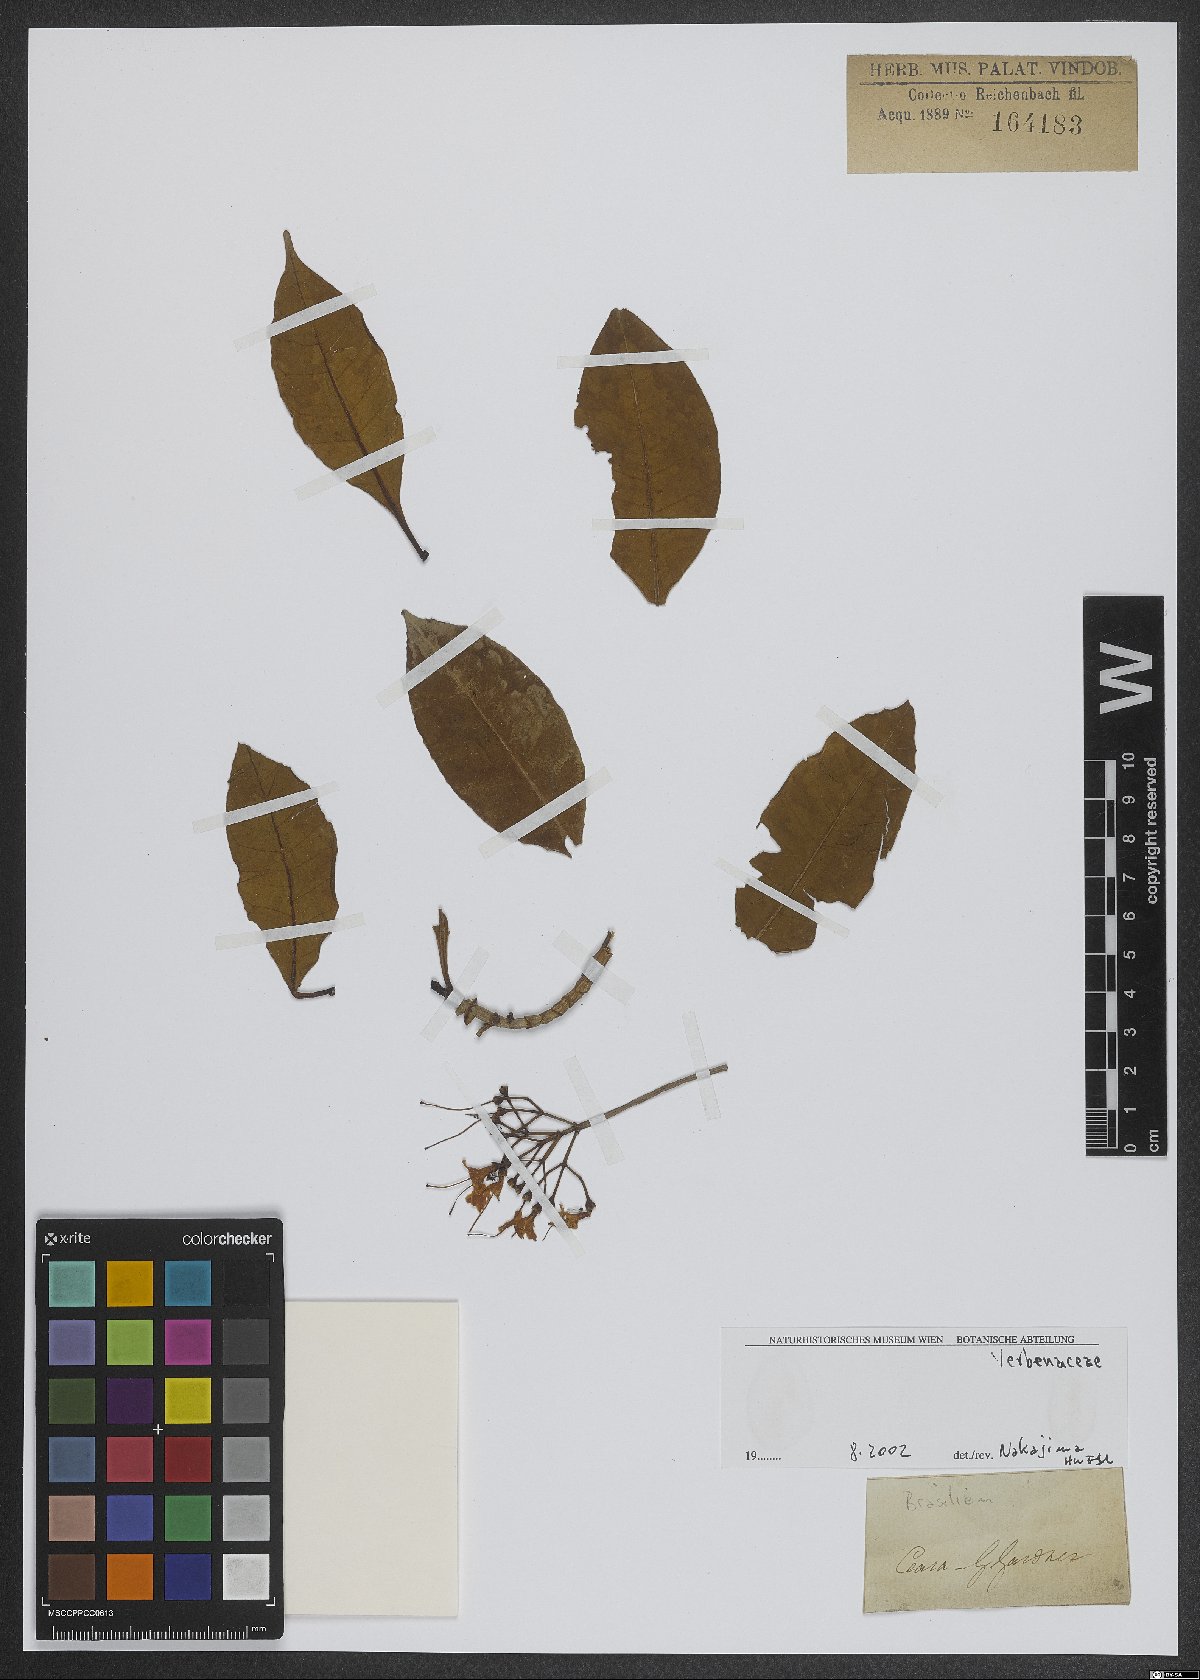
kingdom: Plantae
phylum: Tracheophyta
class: Magnoliopsida
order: Lamiales
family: Verbenaceae
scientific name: Verbenaceae
